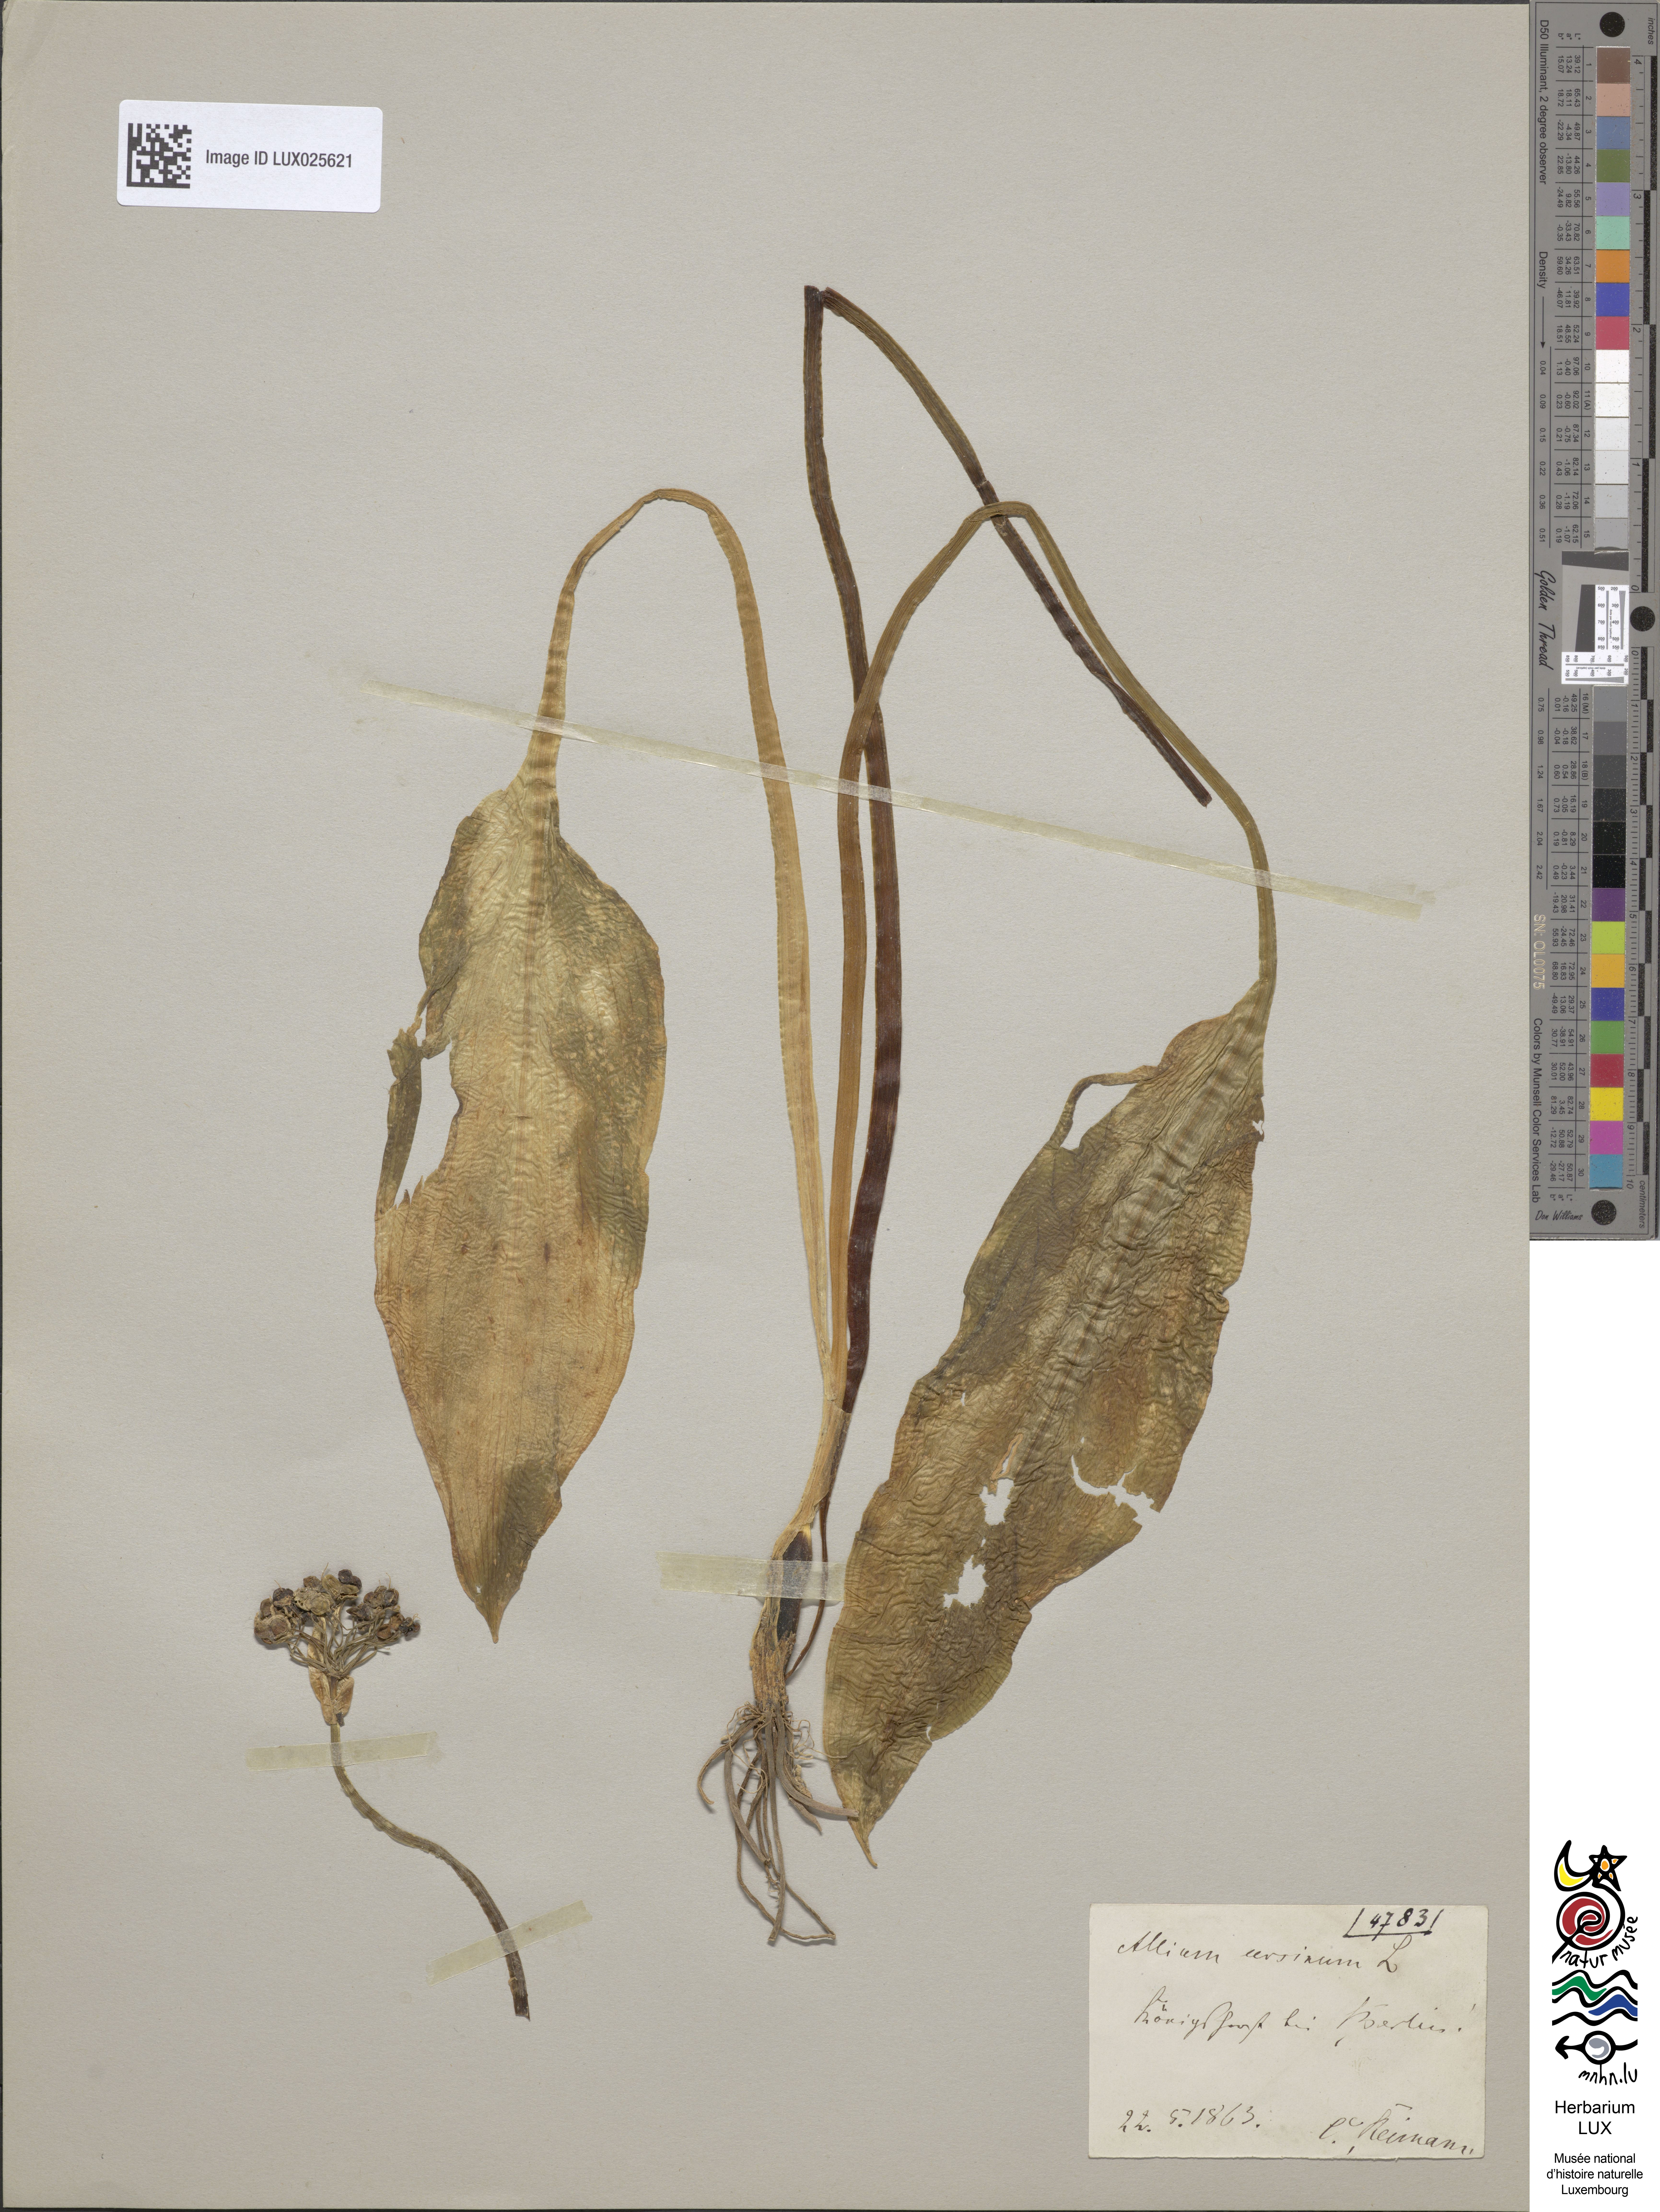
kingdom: Plantae
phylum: Tracheophyta
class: Liliopsida
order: Asparagales
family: Amaryllidaceae
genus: Allium
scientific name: Allium ursinum
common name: Ramsons
